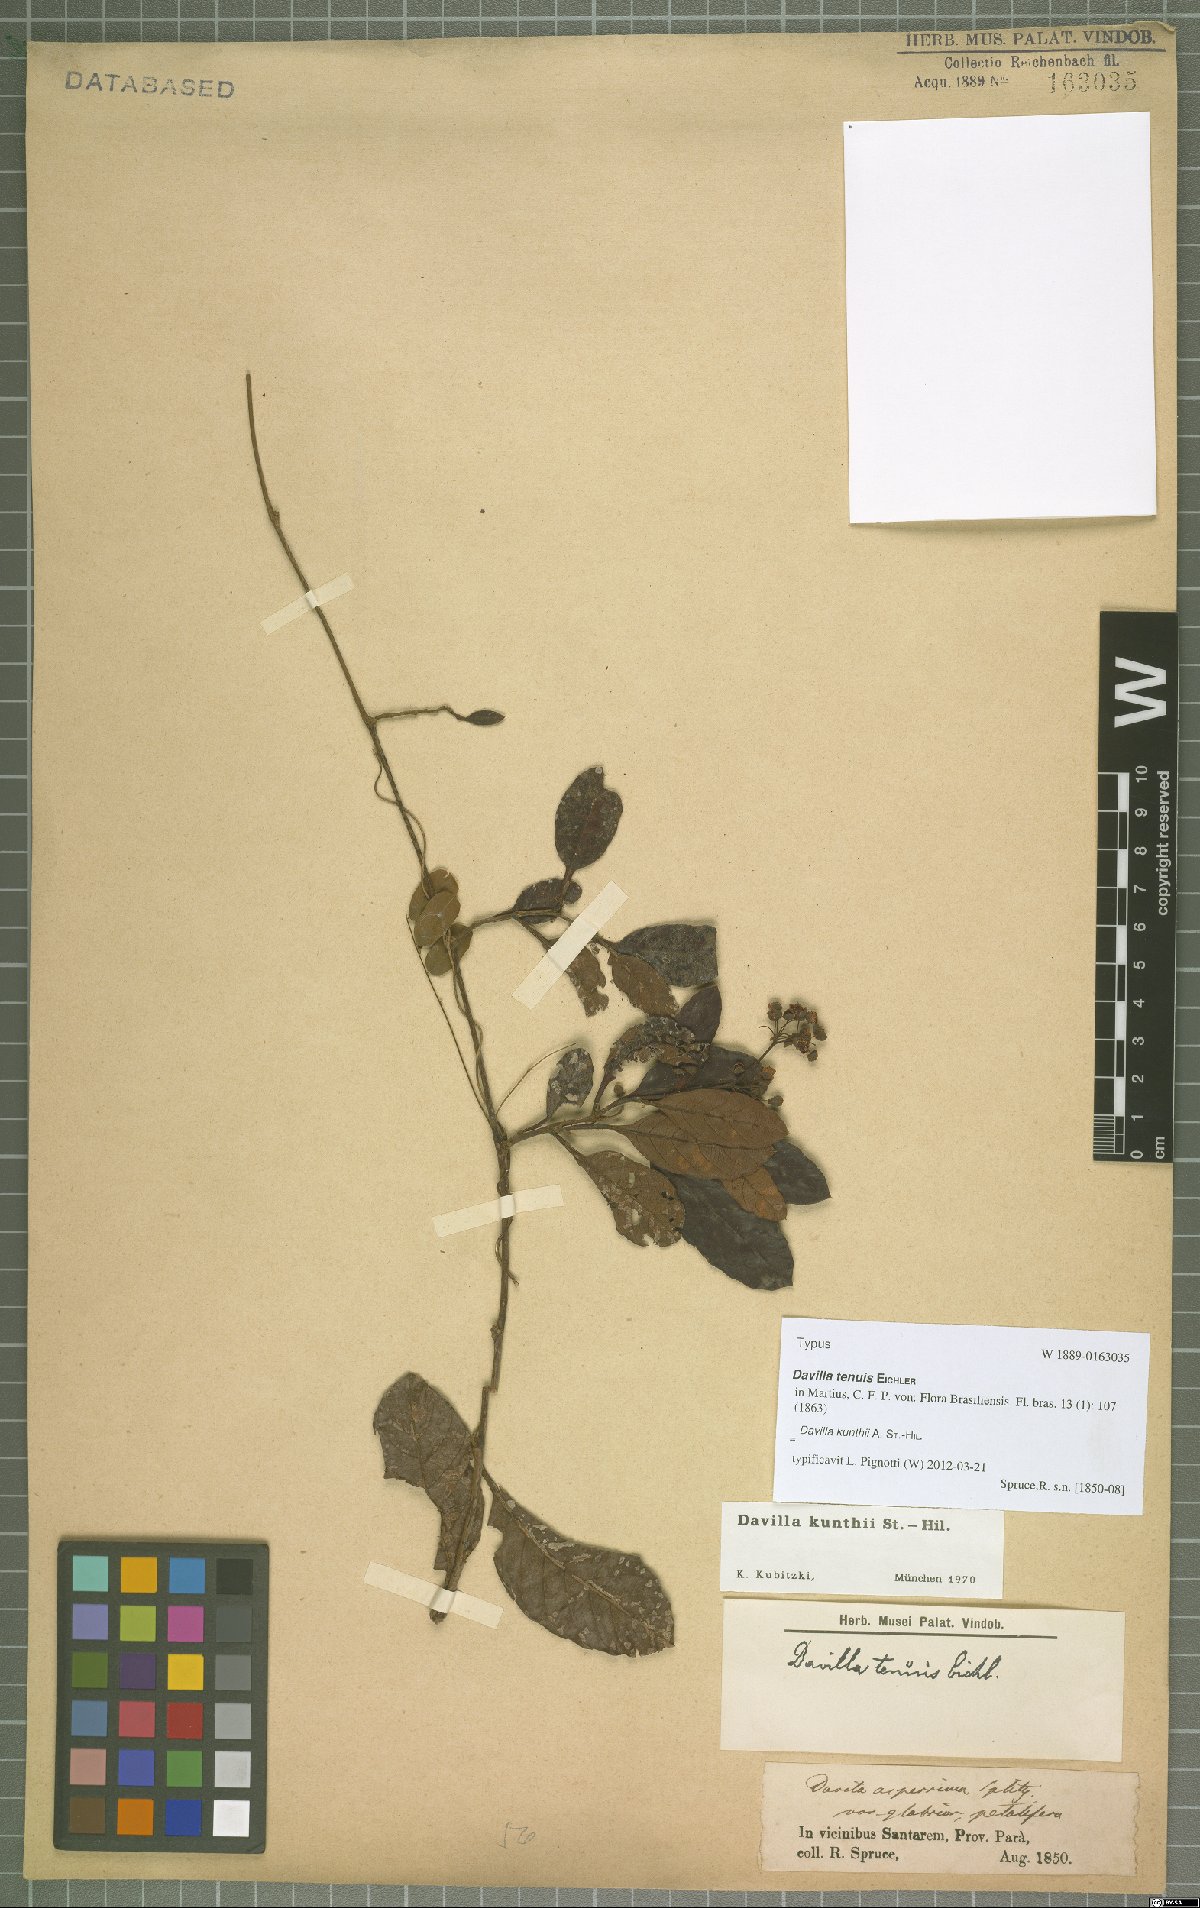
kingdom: Plantae
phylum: Tracheophyta
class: Magnoliopsida
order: Dilleniales
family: Dilleniaceae
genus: Davilla
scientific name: Davilla kunthii
